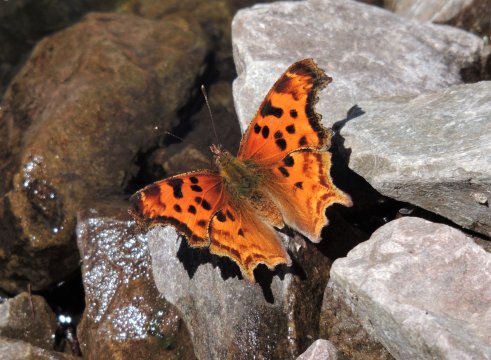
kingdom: Animalia
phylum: Arthropoda
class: Insecta
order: Lepidoptera
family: Nymphalidae
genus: Polygonia
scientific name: Polygonia satyrus
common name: Satyr Comma
